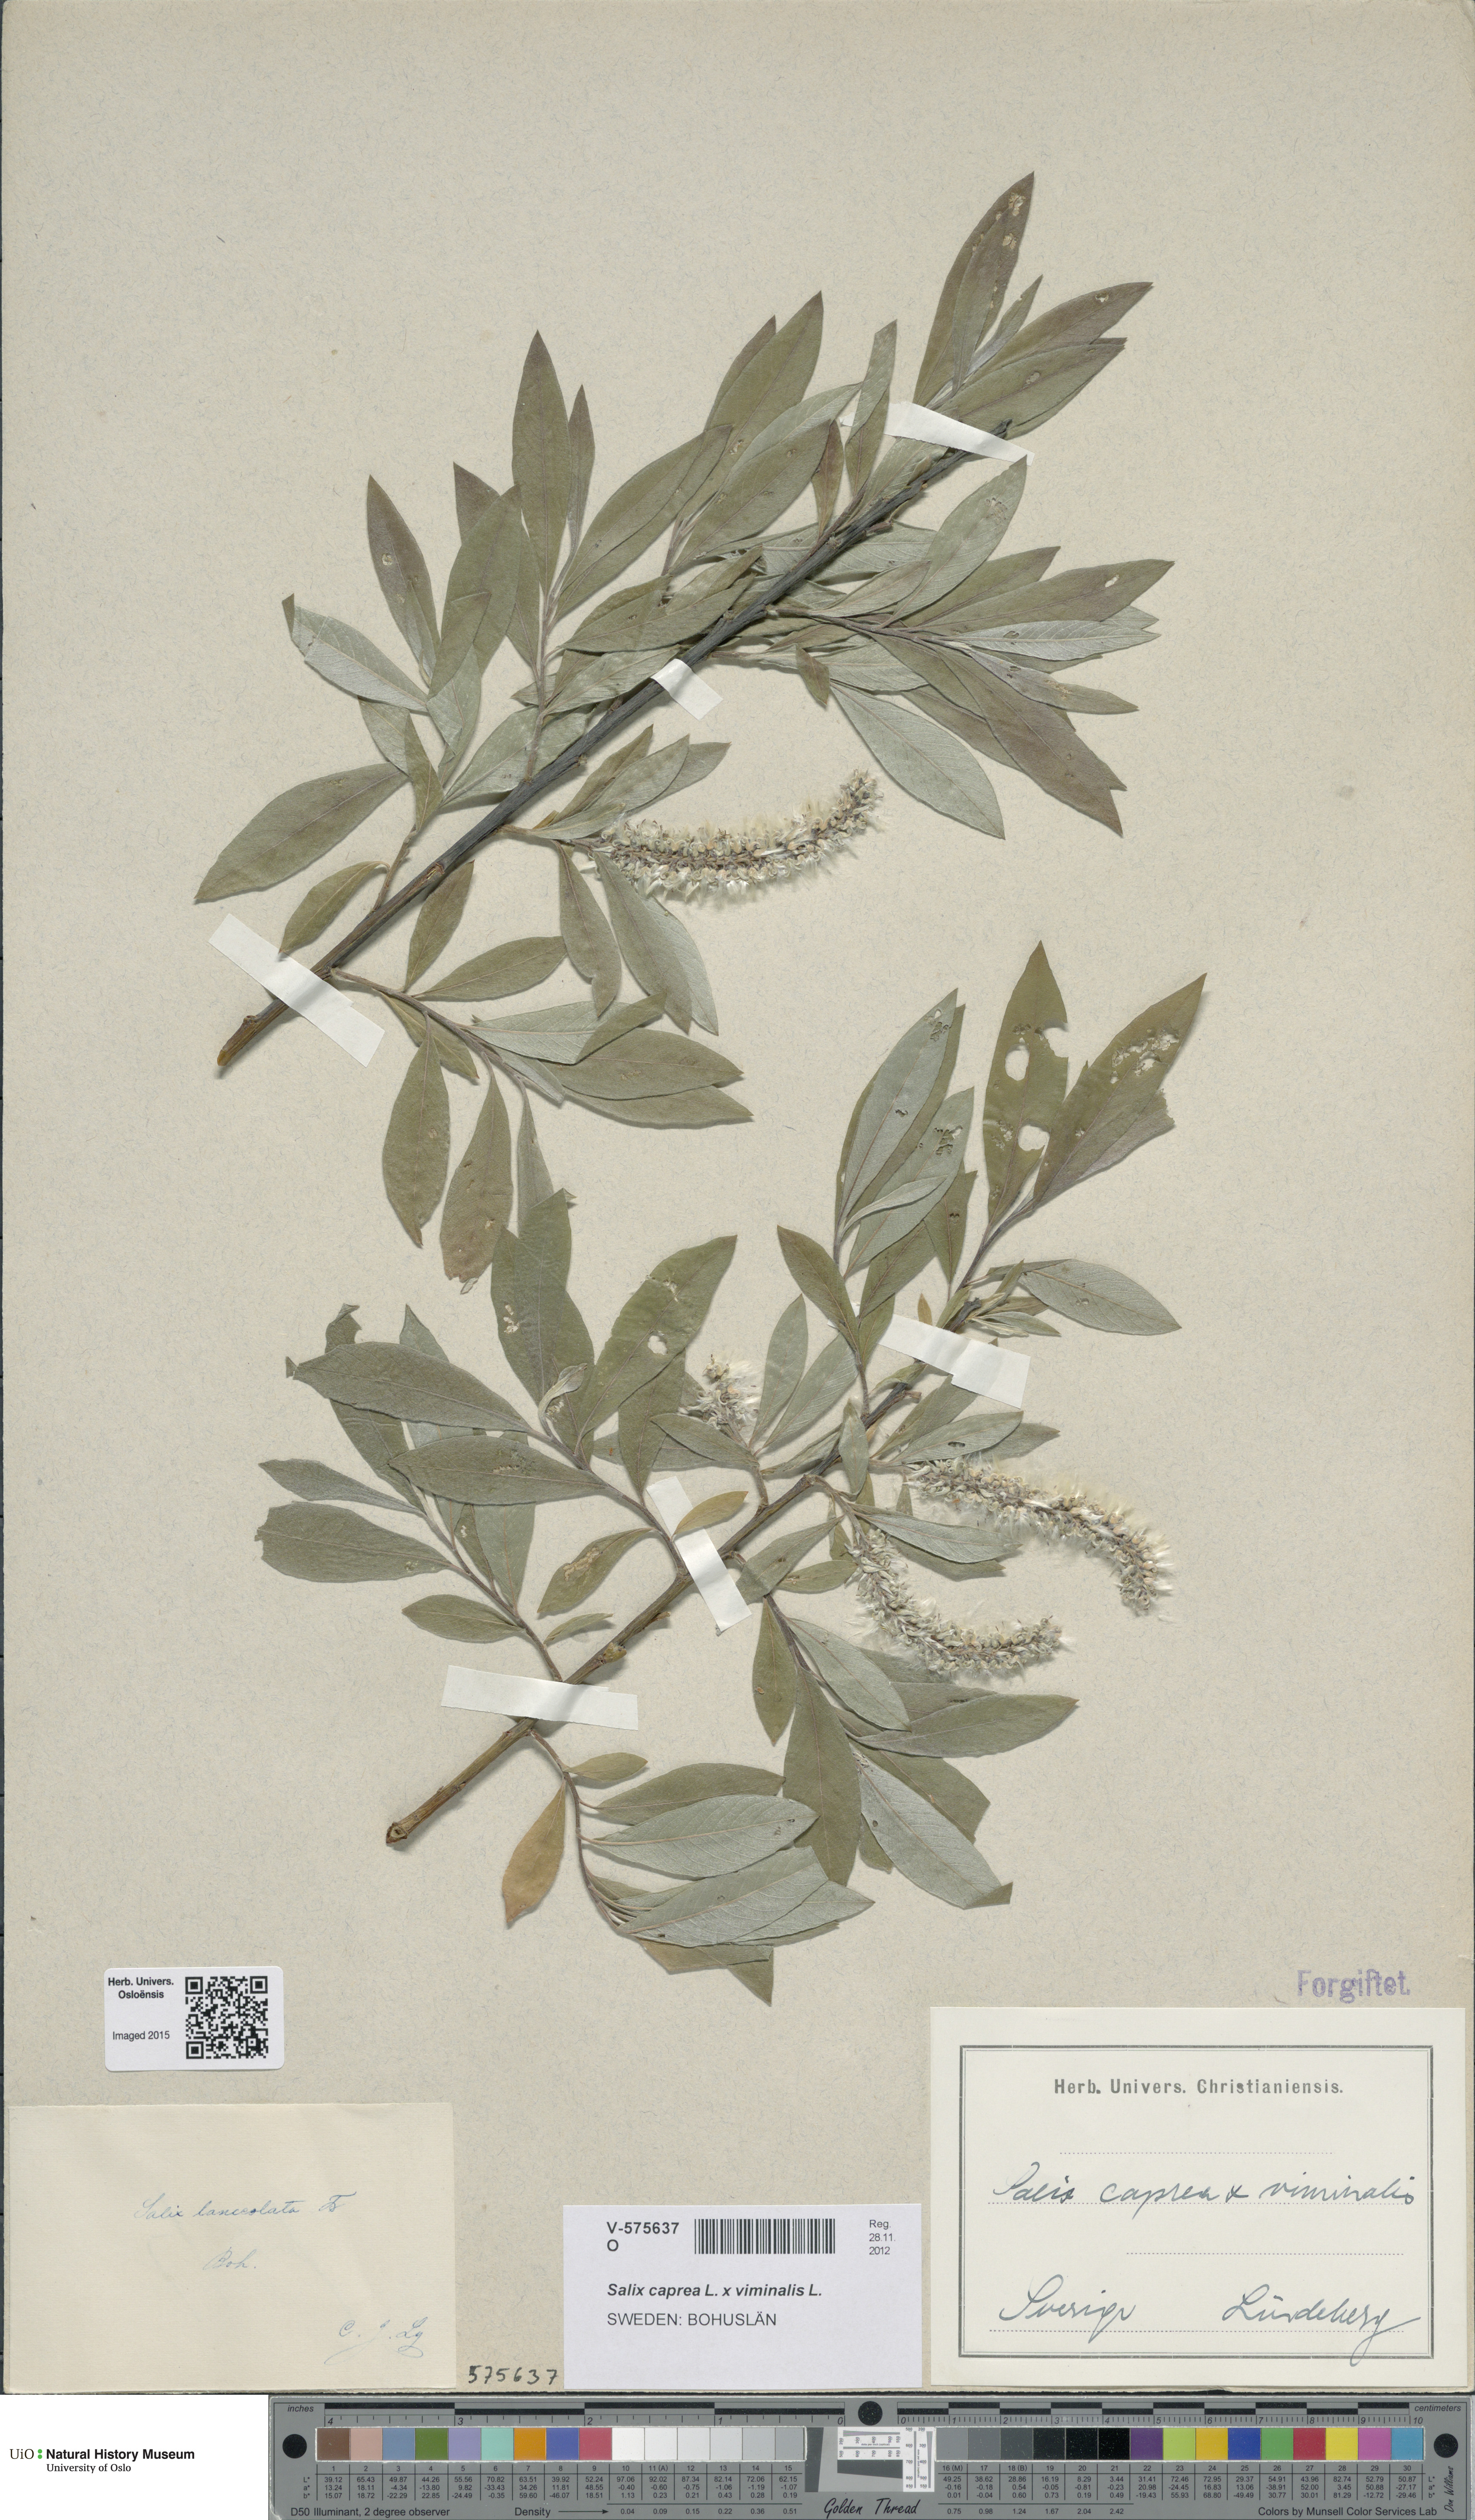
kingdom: Plantae
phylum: Tracheophyta
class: Magnoliopsida
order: Malpighiales
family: Salicaceae
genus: Salix
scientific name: Salix
